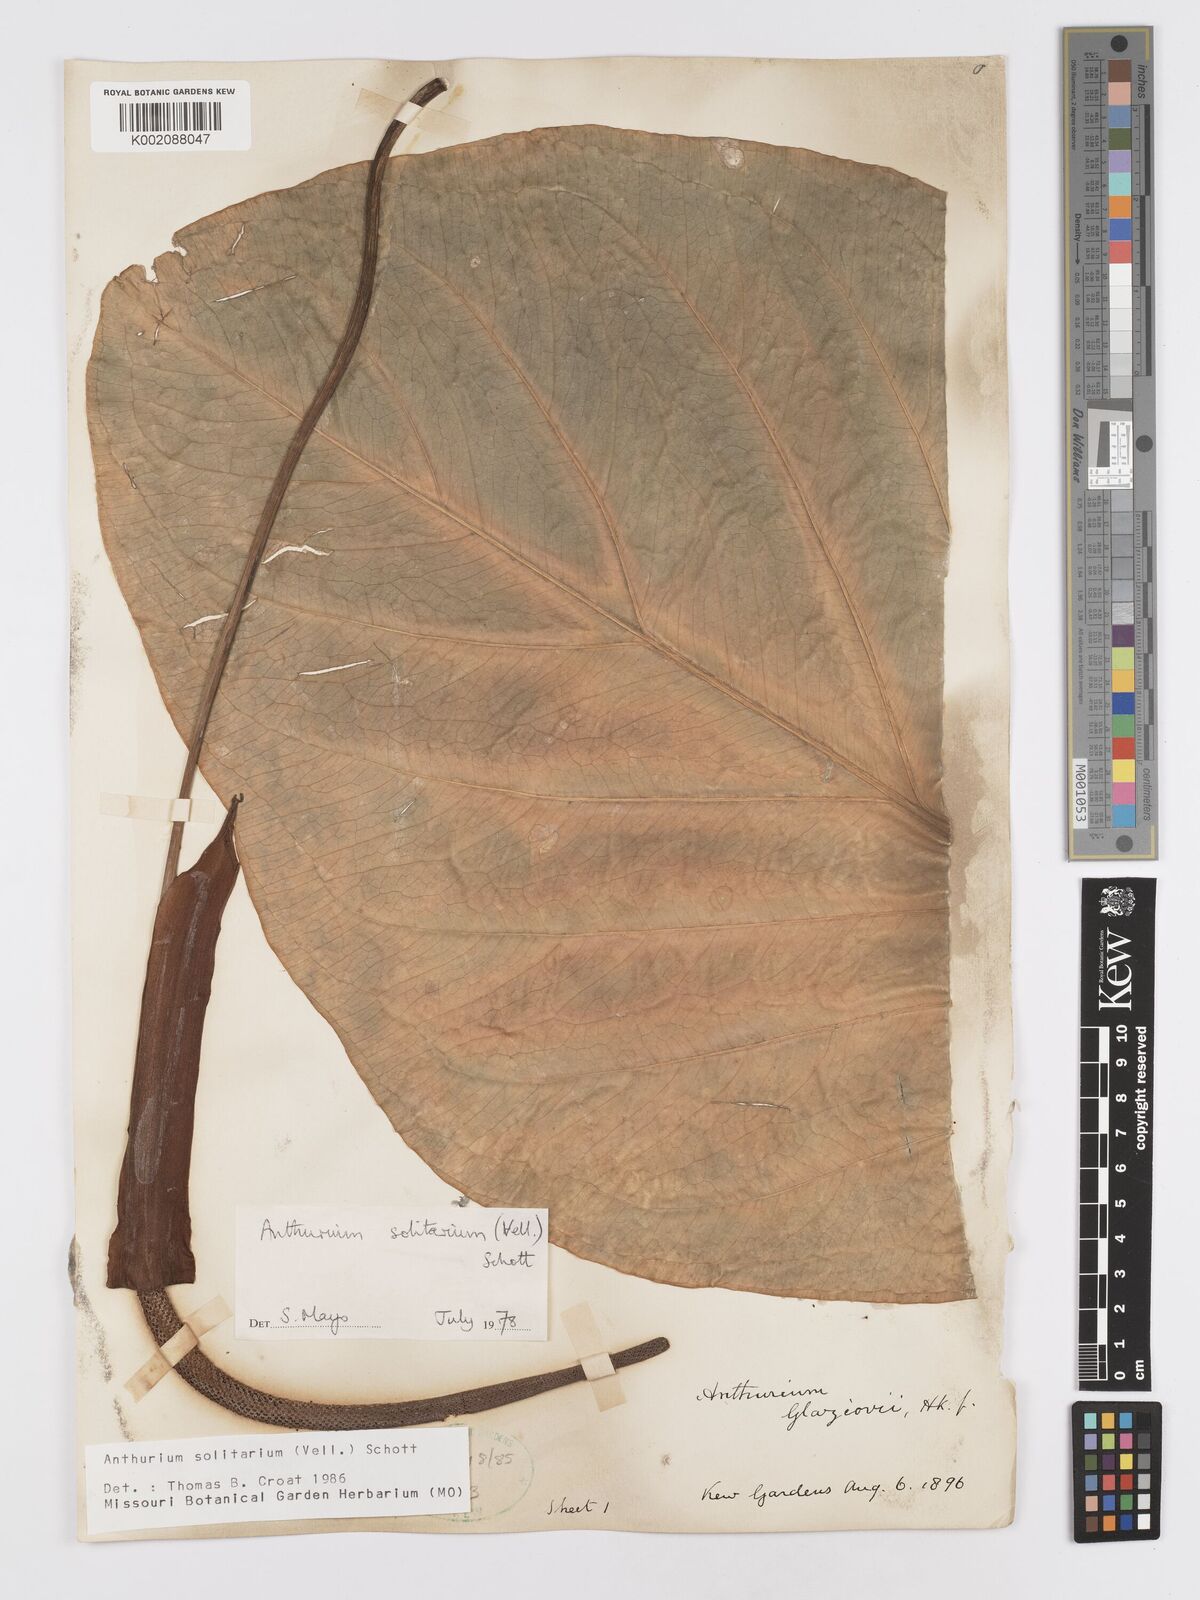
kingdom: Plantae
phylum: Tracheophyta
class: Liliopsida
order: Alismatales
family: Araceae
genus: Anthurium
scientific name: Anthurium solitarium
